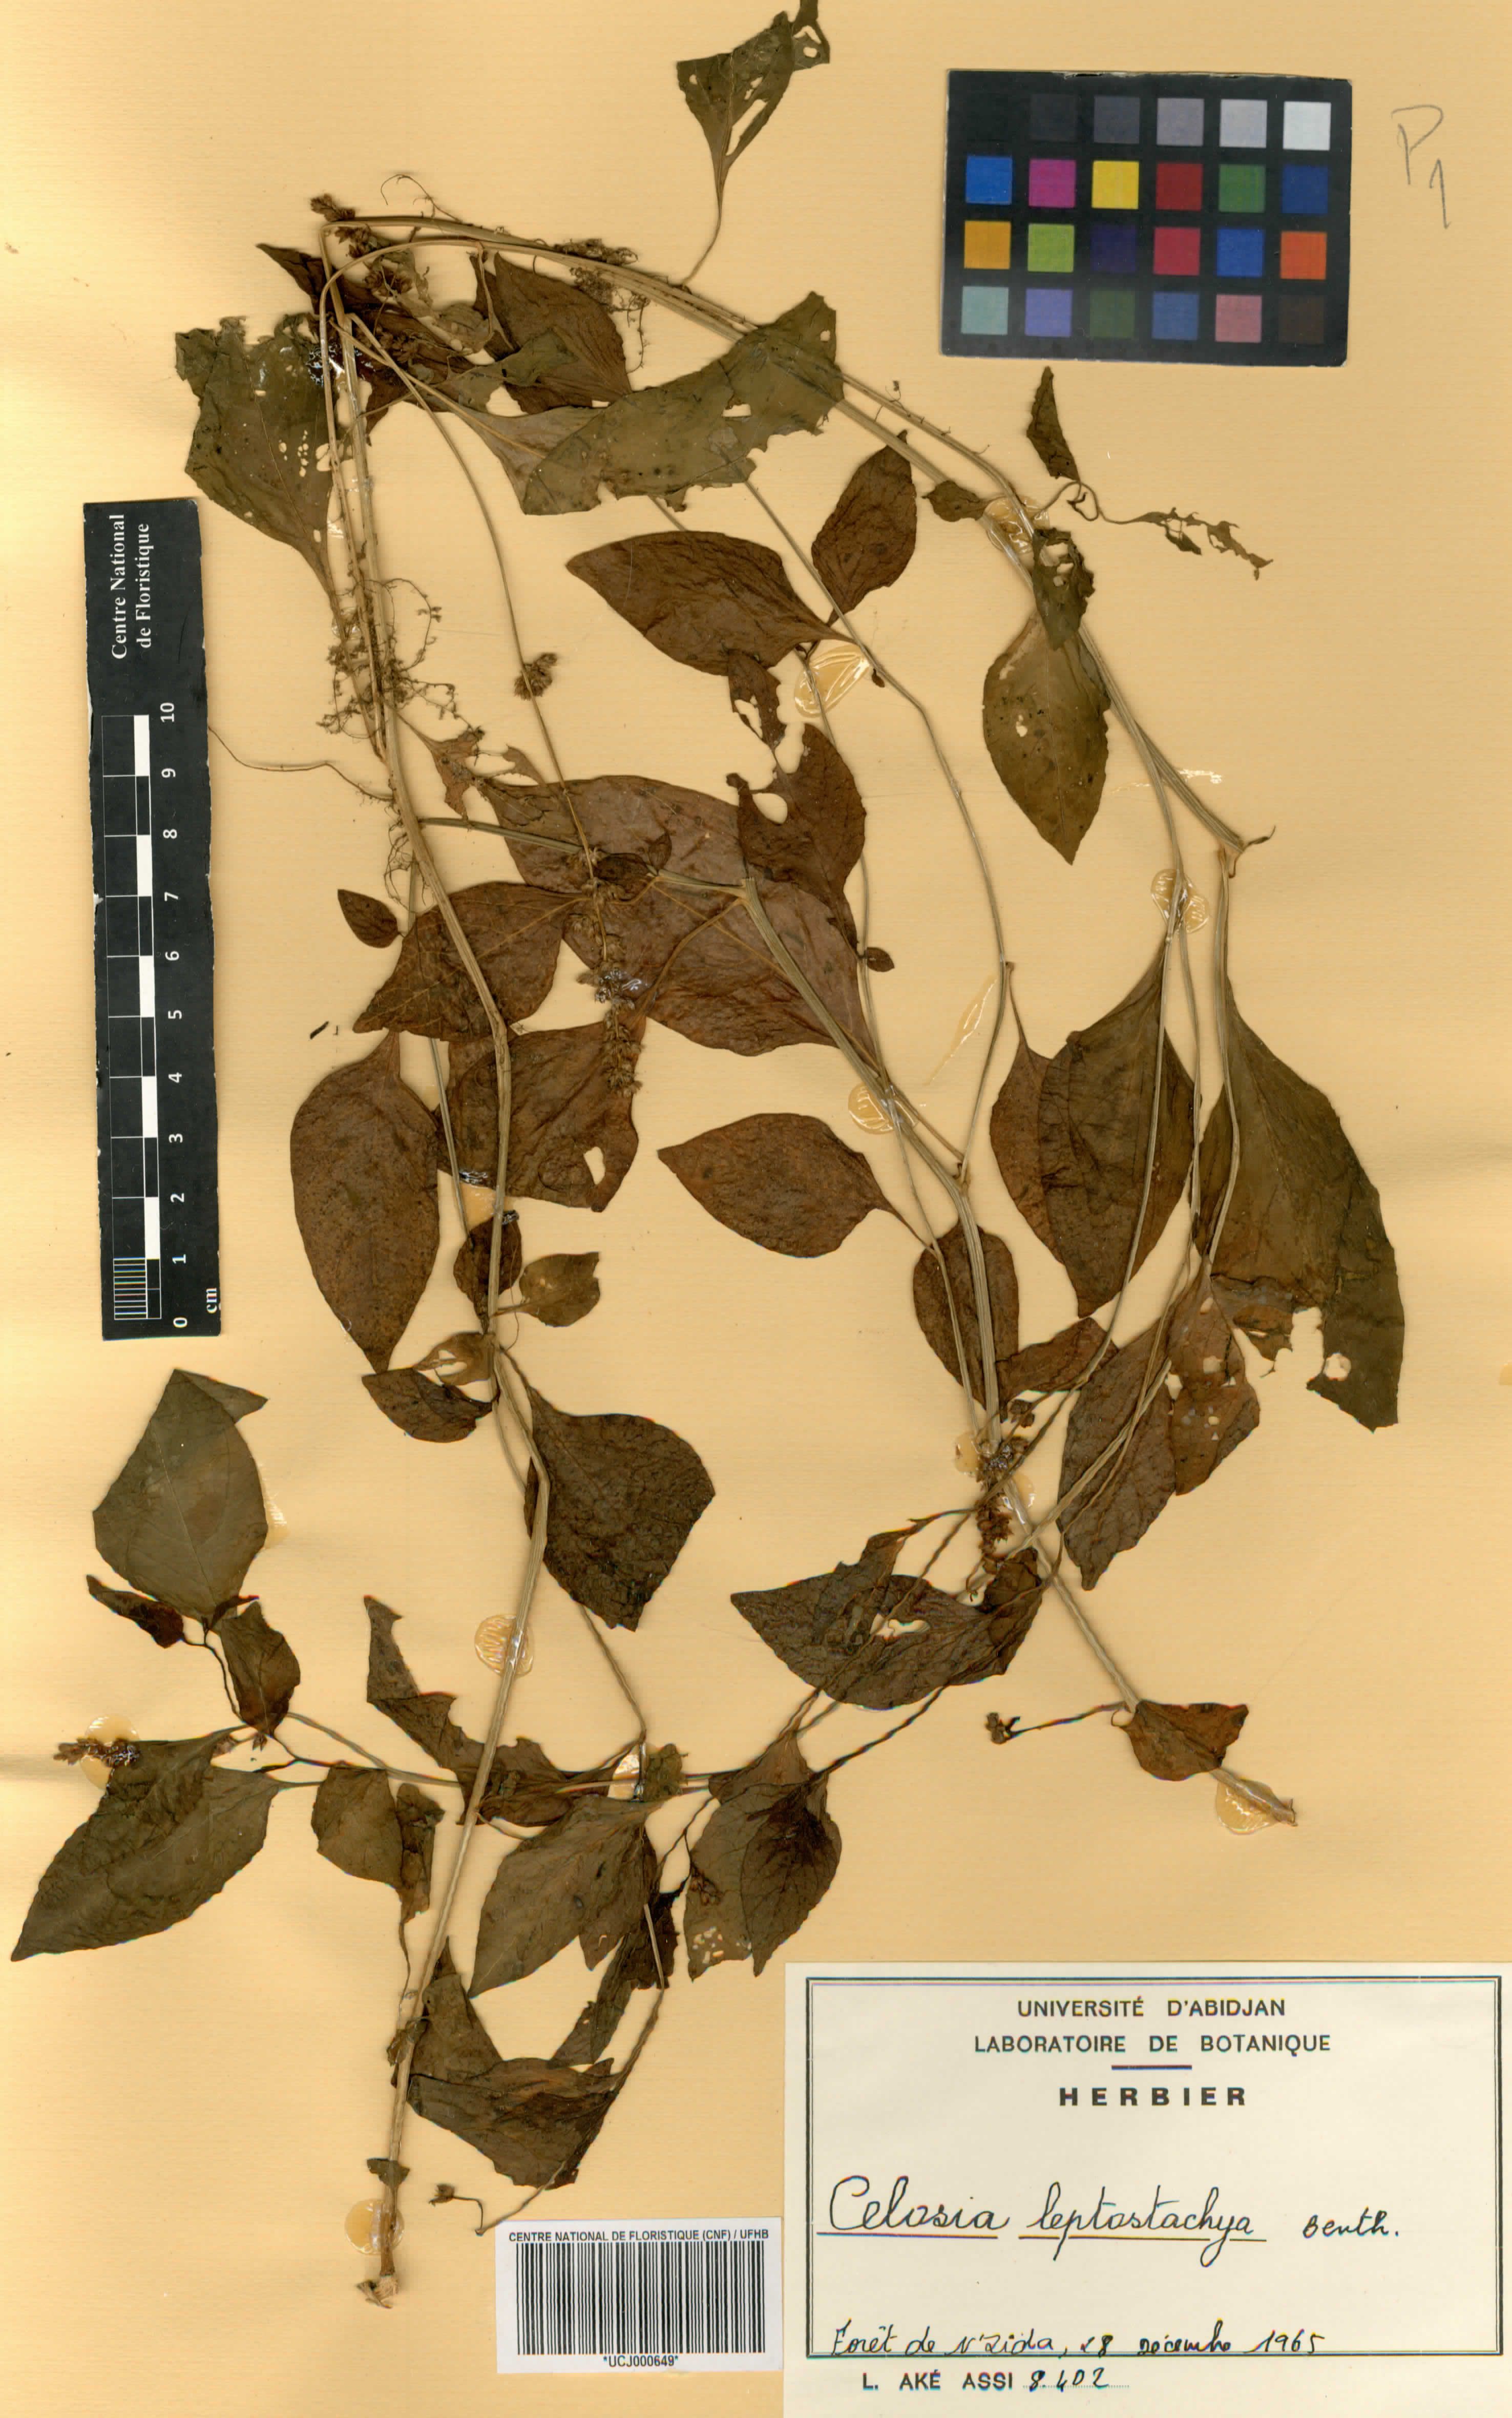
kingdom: Plantae
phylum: Tracheophyta
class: Magnoliopsida
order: Caryophyllales
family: Amaranthaceae
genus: Celosia
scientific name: Celosia leptostachya
